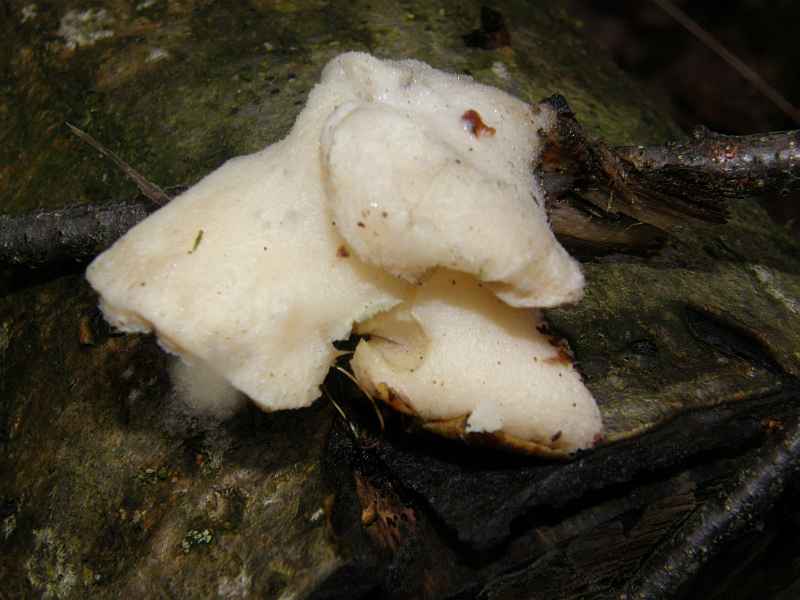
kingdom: Fungi
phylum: Basidiomycota
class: Agaricomycetes
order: Polyporales
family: Incrustoporiaceae
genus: Tyromyces
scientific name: Tyromyces chioneus
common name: stor blødporesvamp
